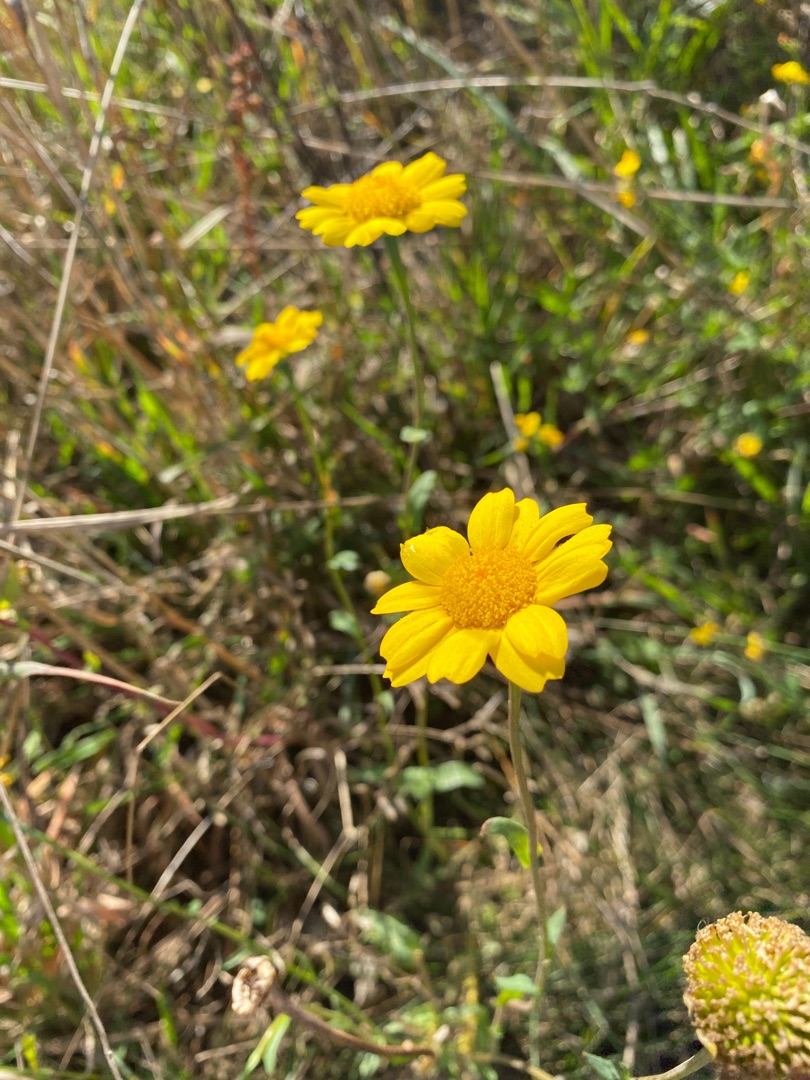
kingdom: Plantae
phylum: Tracheophyta
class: Magnoliopsida
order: Asterales
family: Asteraceae
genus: Glebionis
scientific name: Glebionis segetum
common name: Gul okseøje
